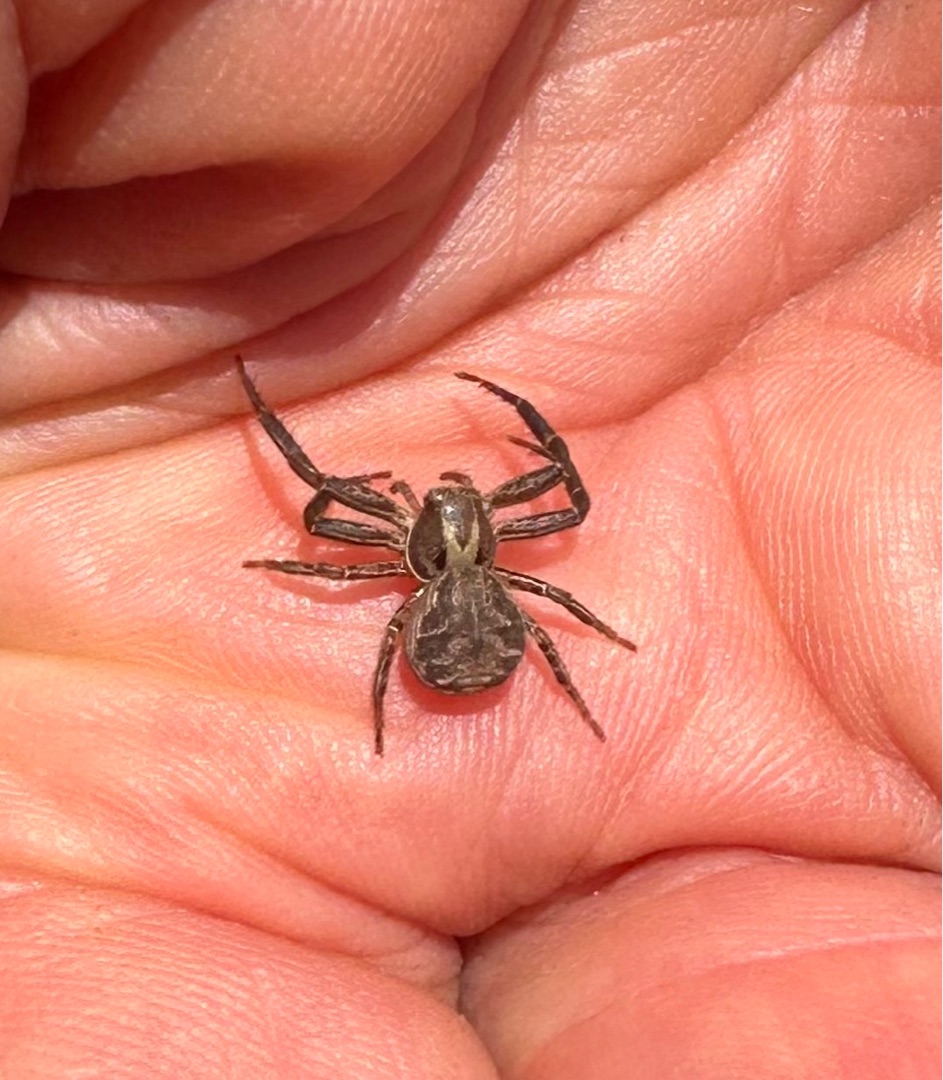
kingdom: Animalia
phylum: Arthropoda
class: Arachnida
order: Araneae
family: Thomisidae
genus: Xysticus
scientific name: Xysticus
